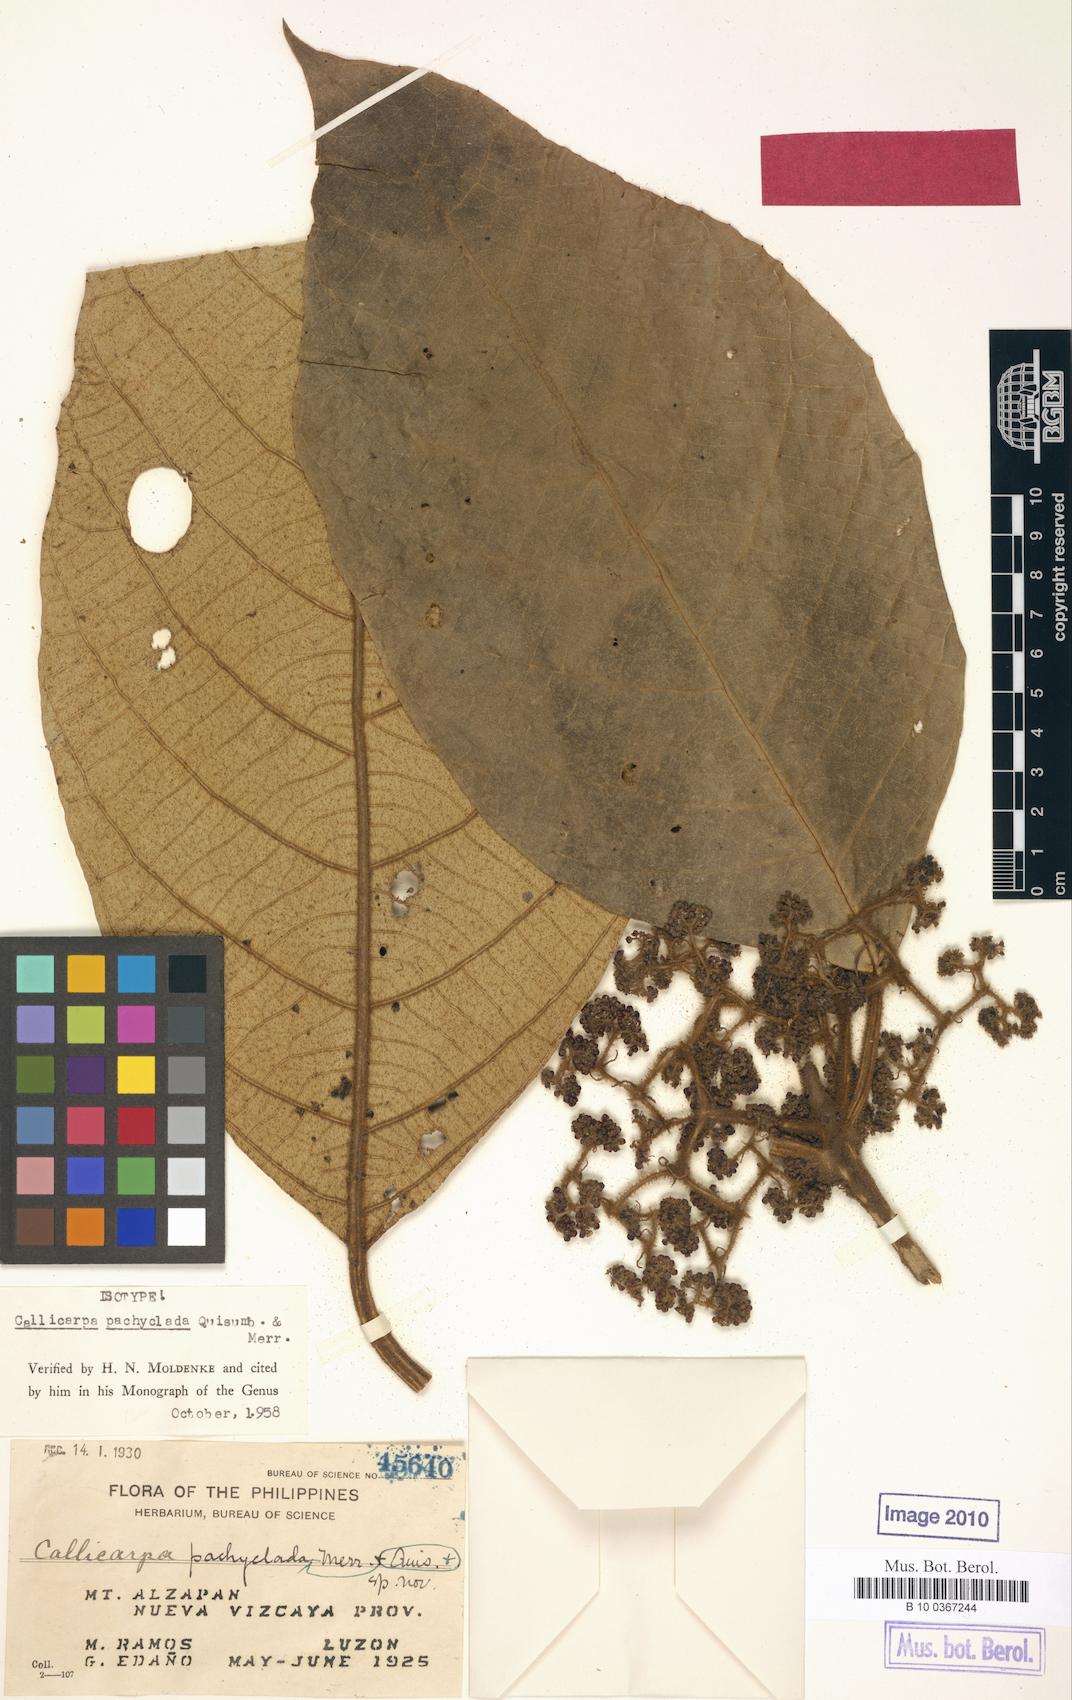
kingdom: Plantae
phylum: Tracheophyta
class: Magnoliopsida
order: Lamiales
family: Lamiaceae
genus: Callicarpa
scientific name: Callicarpa pachyclada
